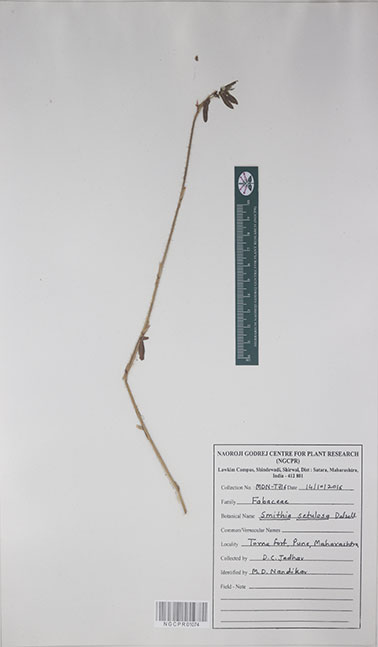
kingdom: Plantae
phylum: Tracheophyta
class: Magnoliopsida
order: Fabales
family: Fabaceae
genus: Smithia
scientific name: Smithia setulosa
